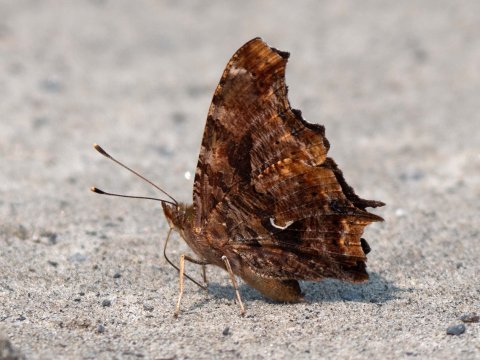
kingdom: Animalia
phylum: Arthropoda
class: Insecta
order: Lepidoptera
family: Nymphalidae
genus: Polygonia
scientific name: Polygonia comma
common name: Eastern Comma
